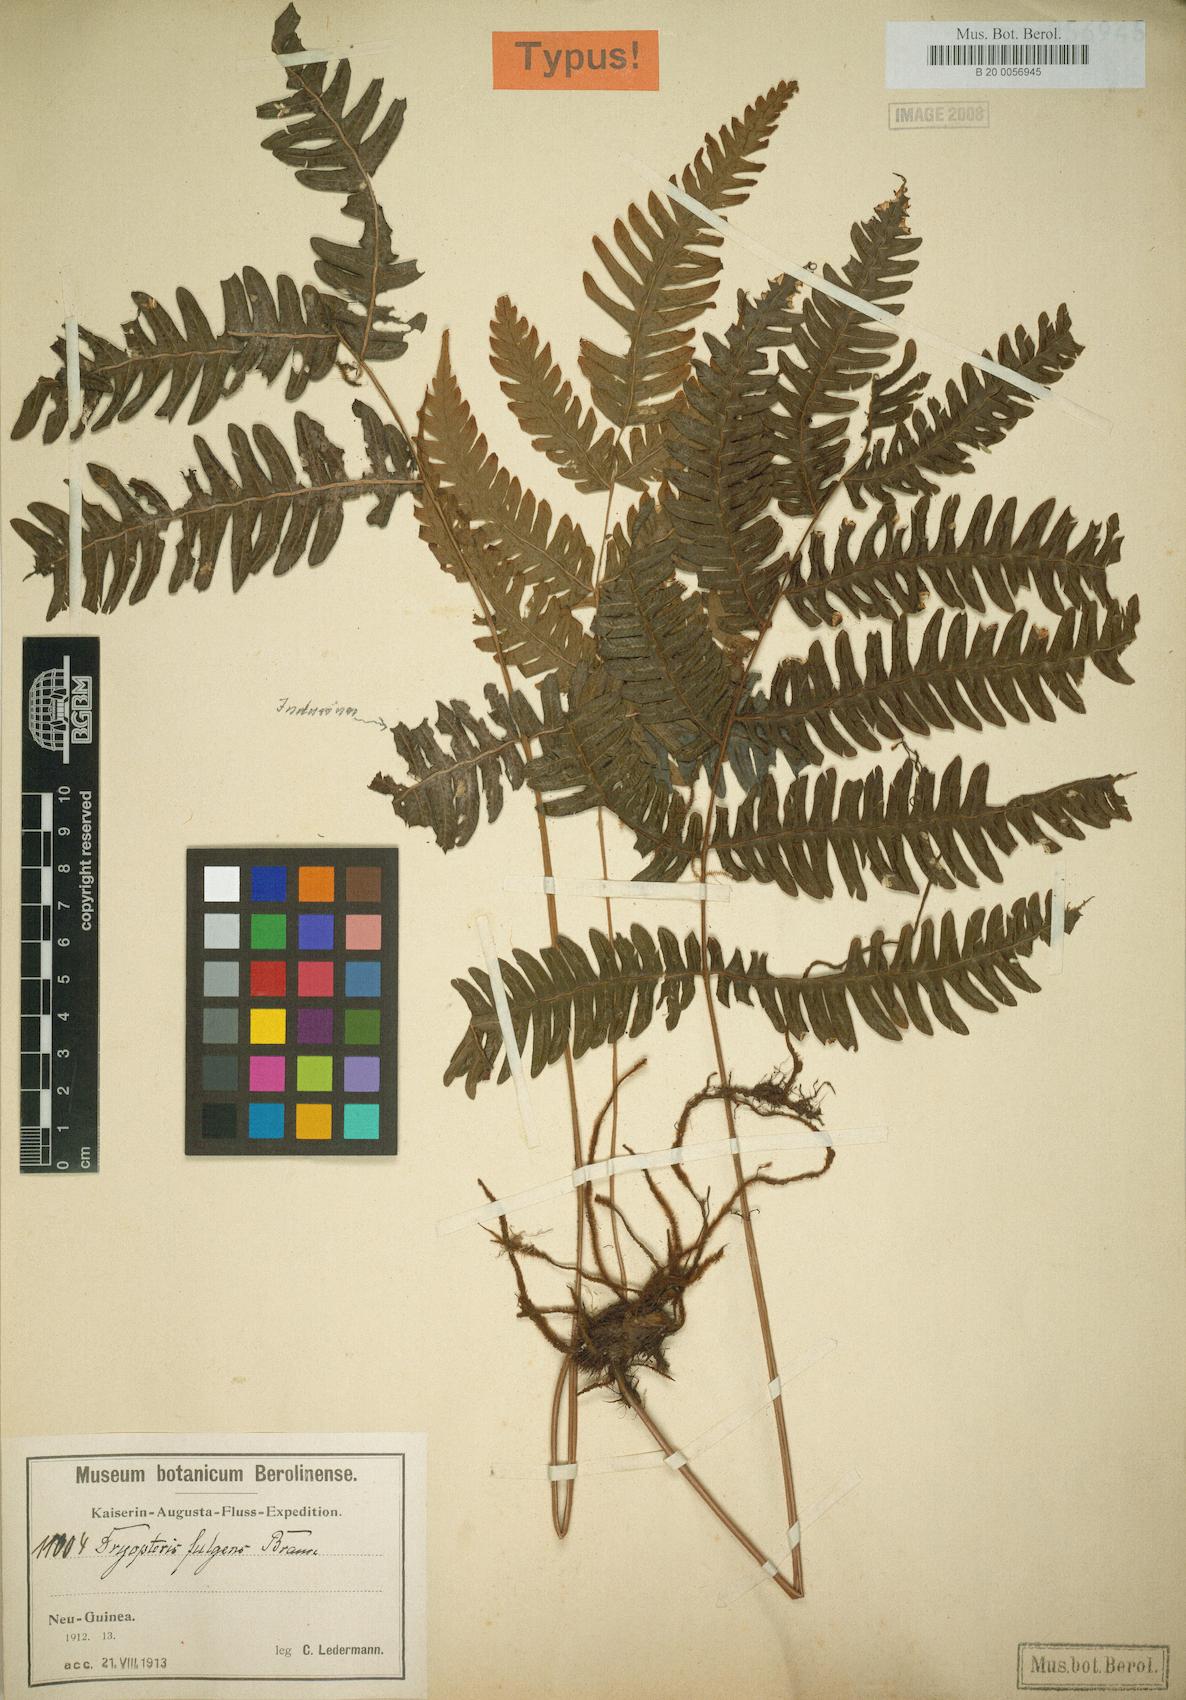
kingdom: Plantae
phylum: Tracheophyta
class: Polypodiopsida
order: Polypodiales
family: Thelypteridaceae
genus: Plesioneuron
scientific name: Plesioneuron fulgens
